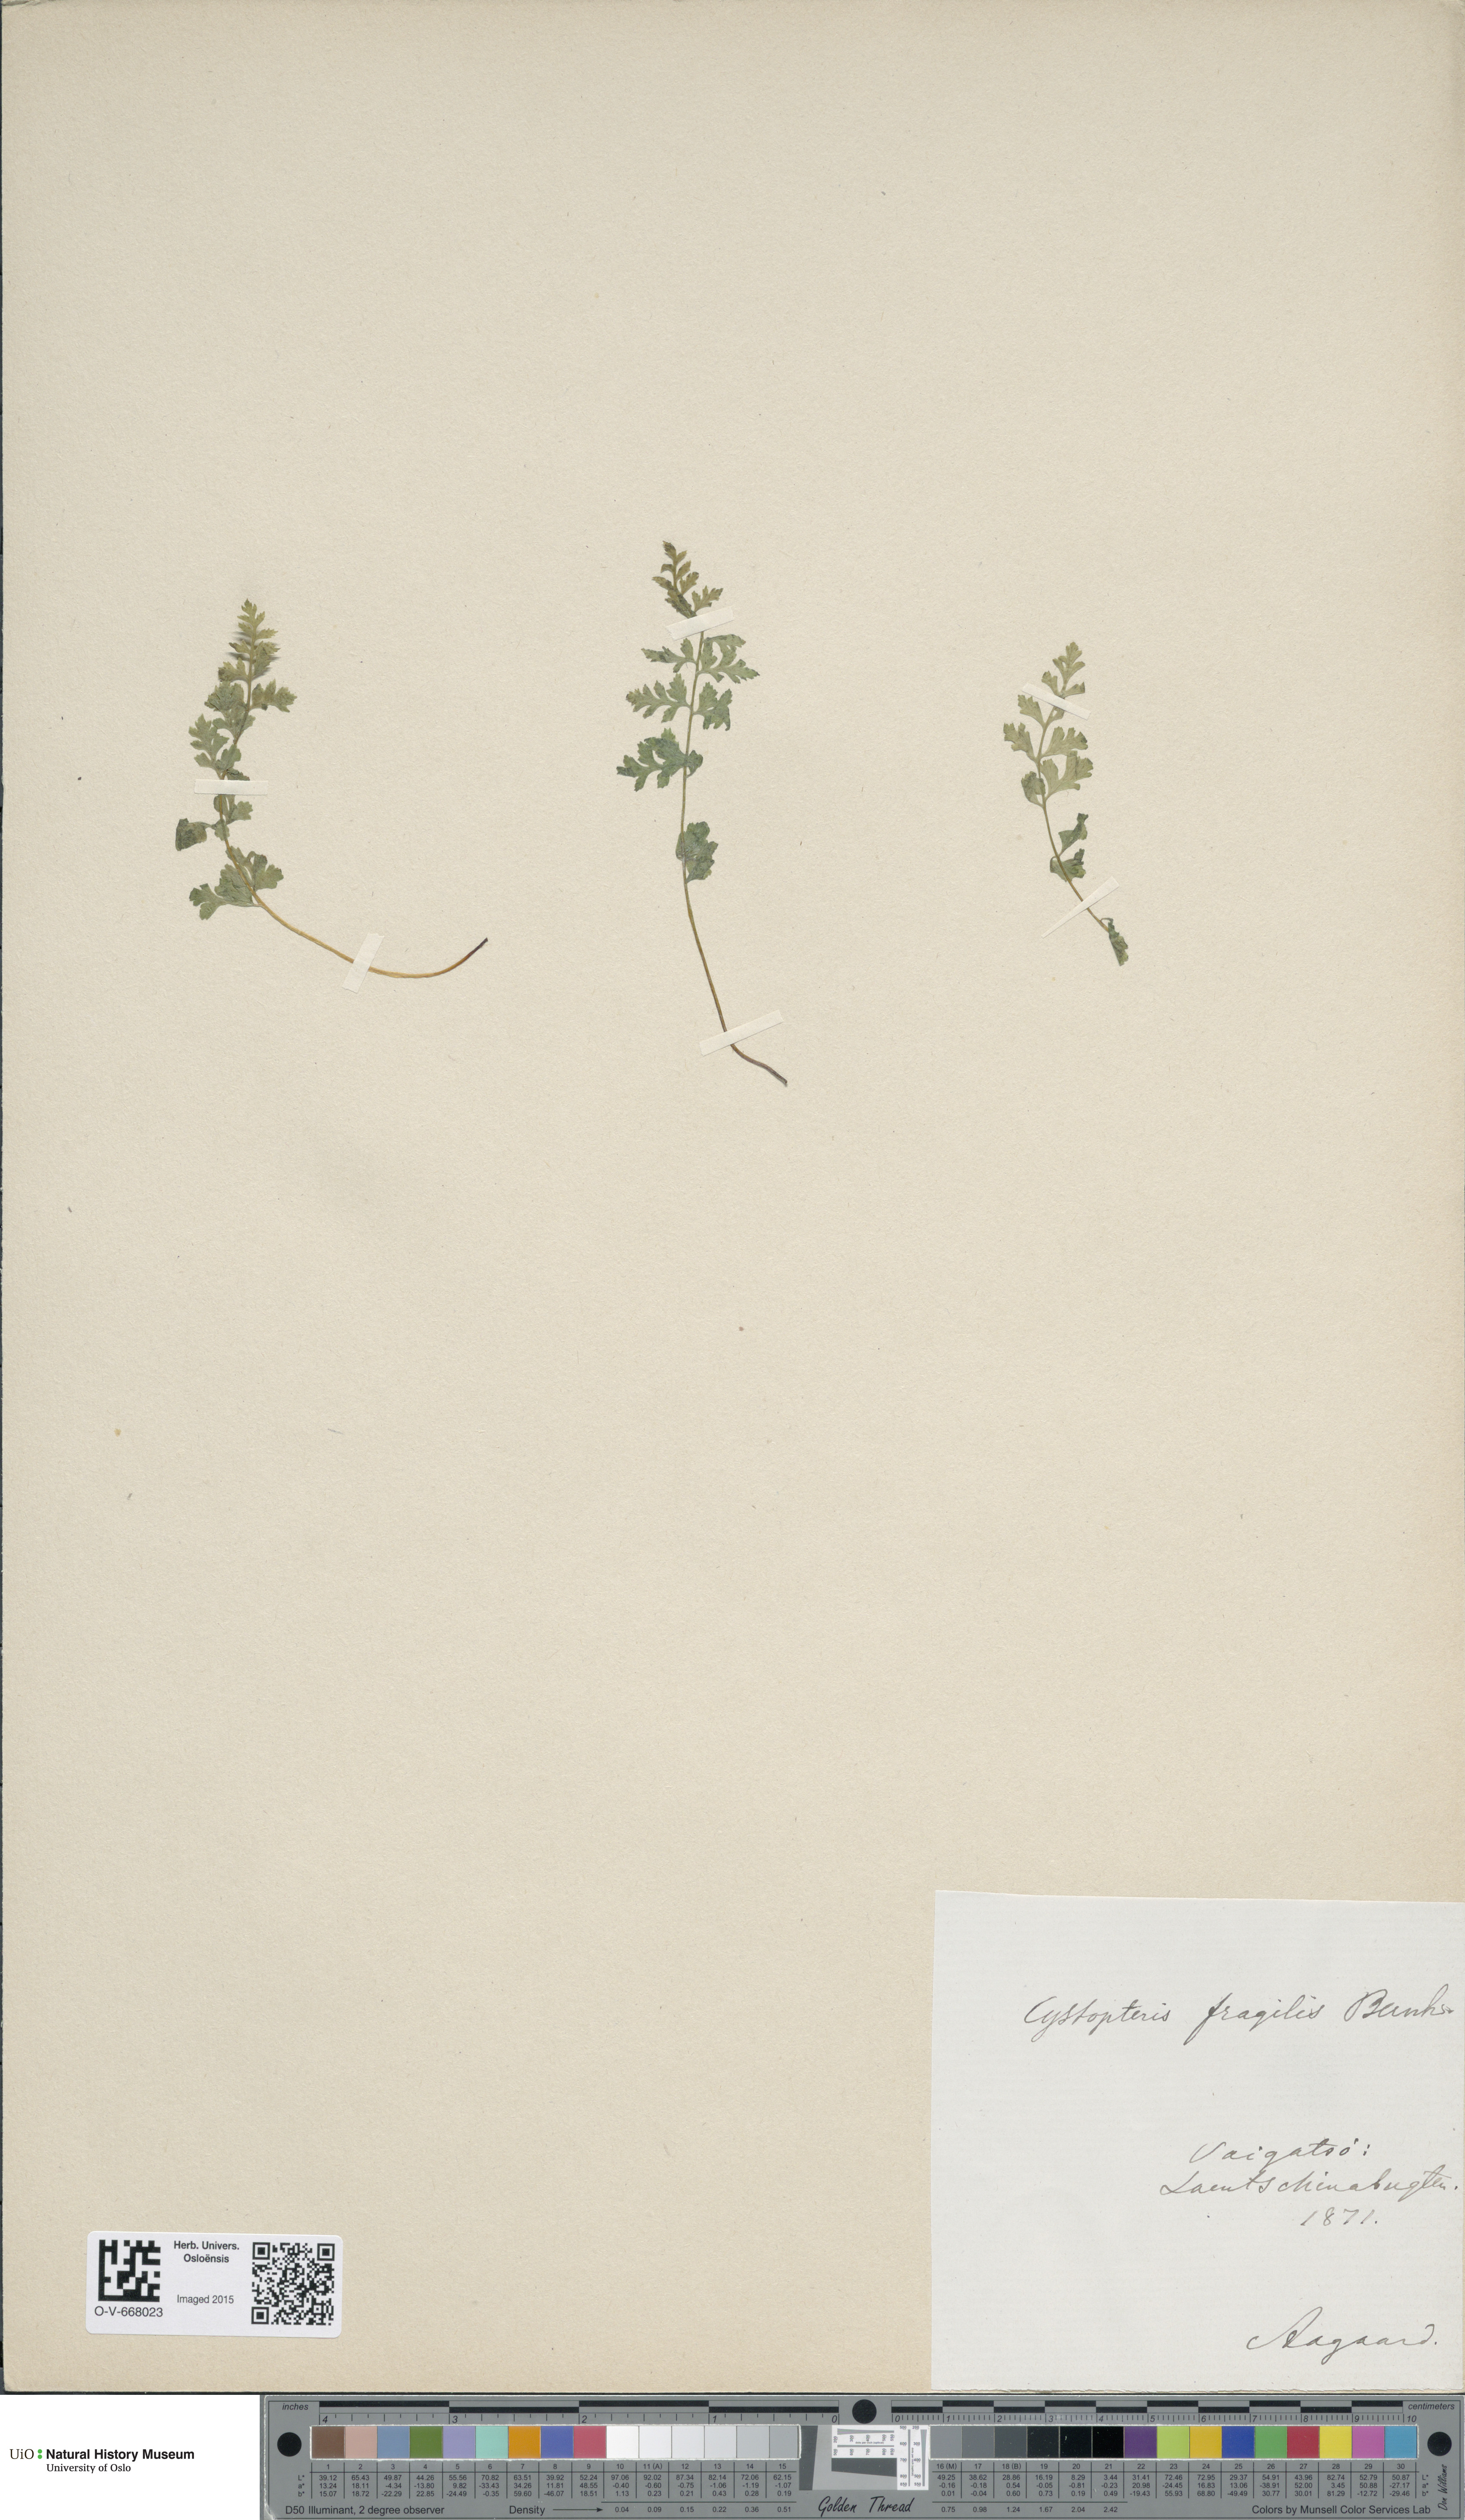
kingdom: Plantae
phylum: Tracheophyta
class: Polypodiopsida
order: Polypodiales
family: Cystopteridaceae
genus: Cystopteris
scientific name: Cystopteris fragilis
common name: Brittle bladder fern
